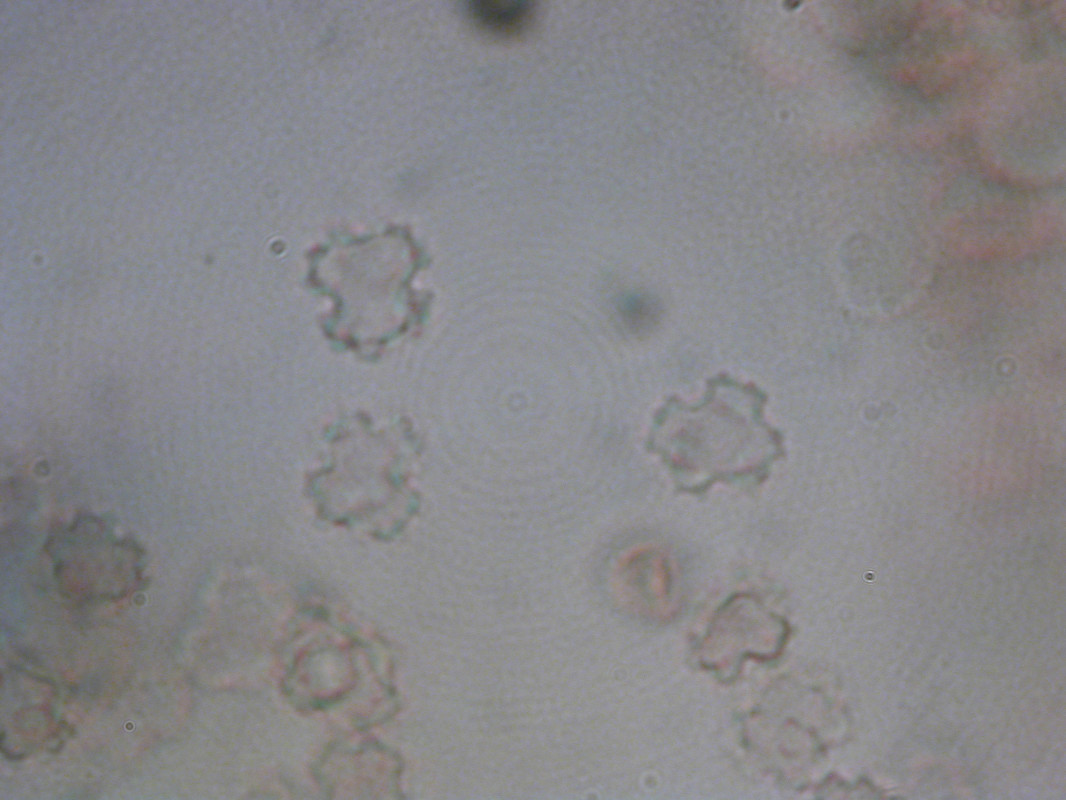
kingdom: Fungi
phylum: Basidiomycota
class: Agaricomycetes
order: Thelephorales
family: Bankeraceae
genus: Hydnellum
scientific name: Hydnellum scabrosum
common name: blåfodet korkpigsvamp
